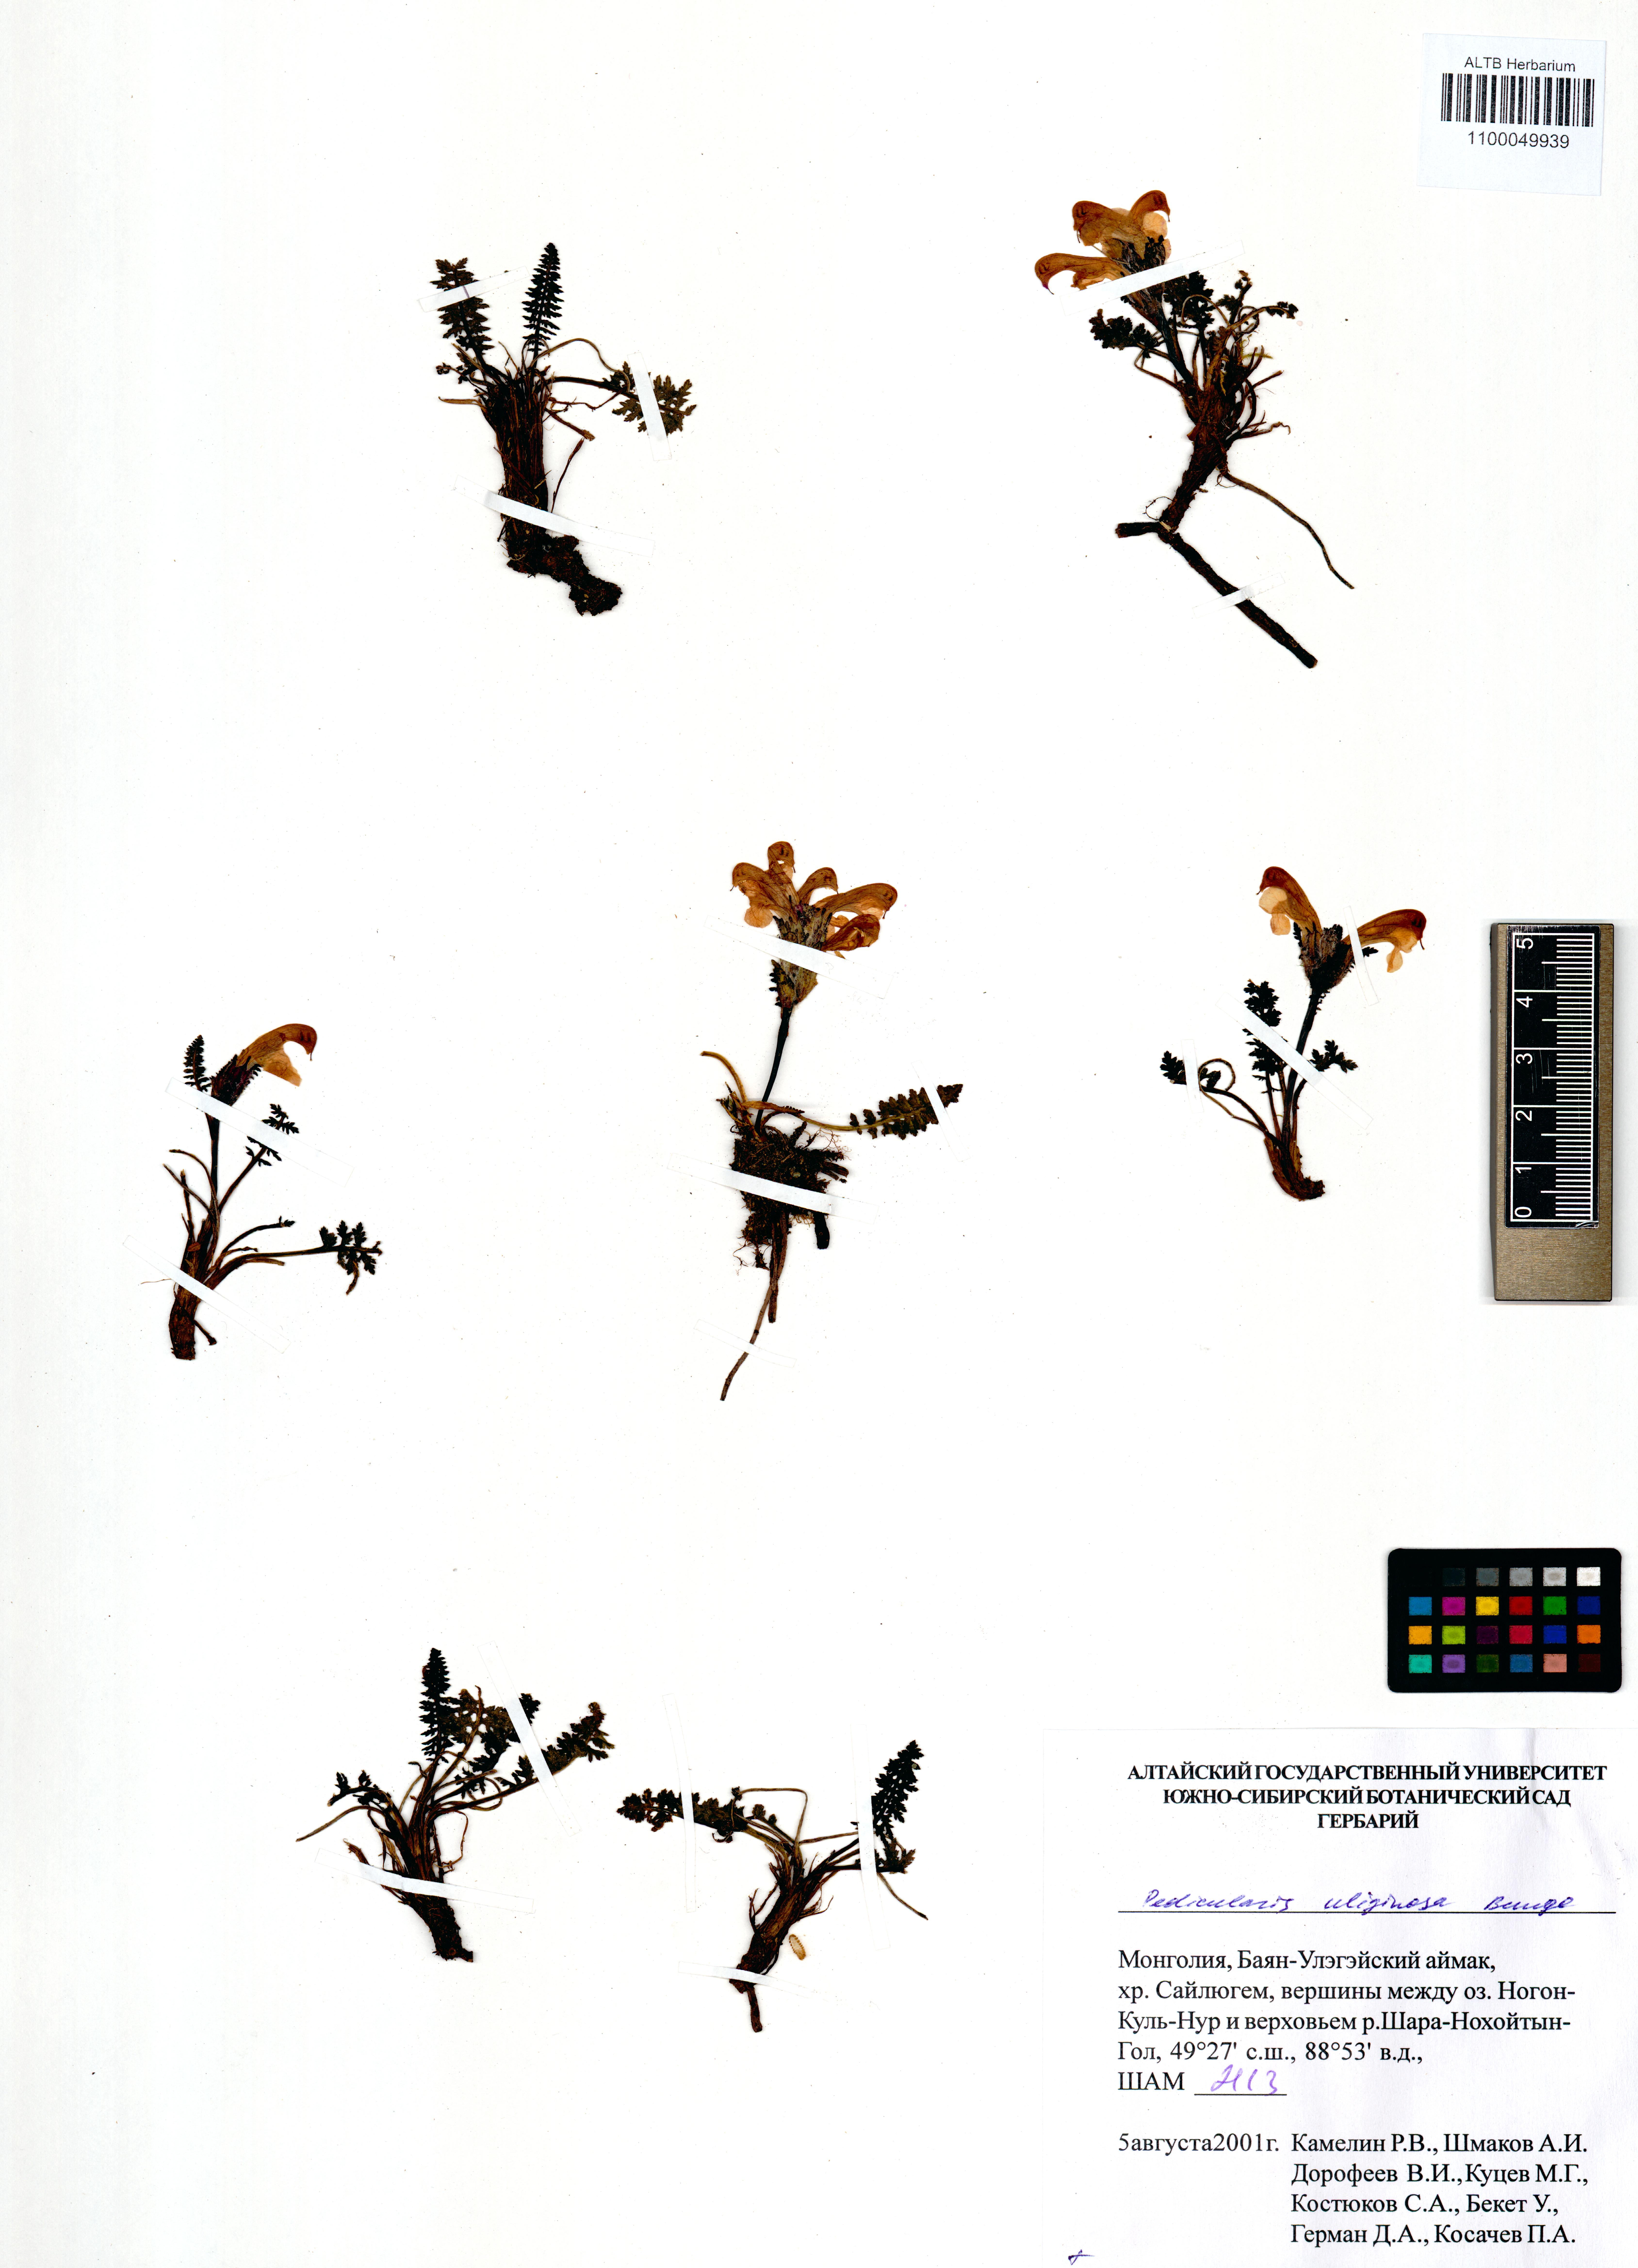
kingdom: Plantae
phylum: Tracheophyta
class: Magnoliopsida
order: Lamiales
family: Orobanchaceae
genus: Pedicularis
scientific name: Pedicularis uliginosa
